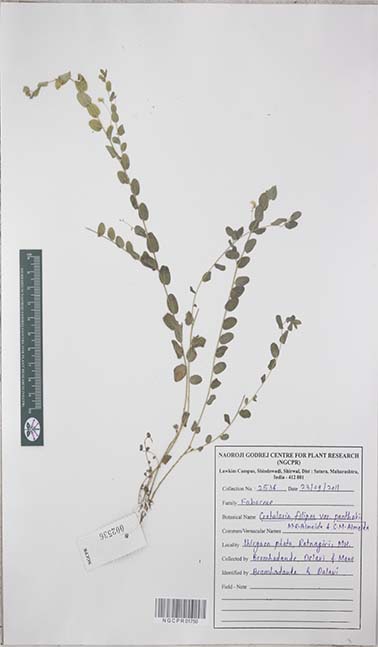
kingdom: Plantae
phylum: Tracheophyta
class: Magnoliopsida
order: Fabales
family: Fabaceae
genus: Crotalaria
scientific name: Crotalaria filipes
